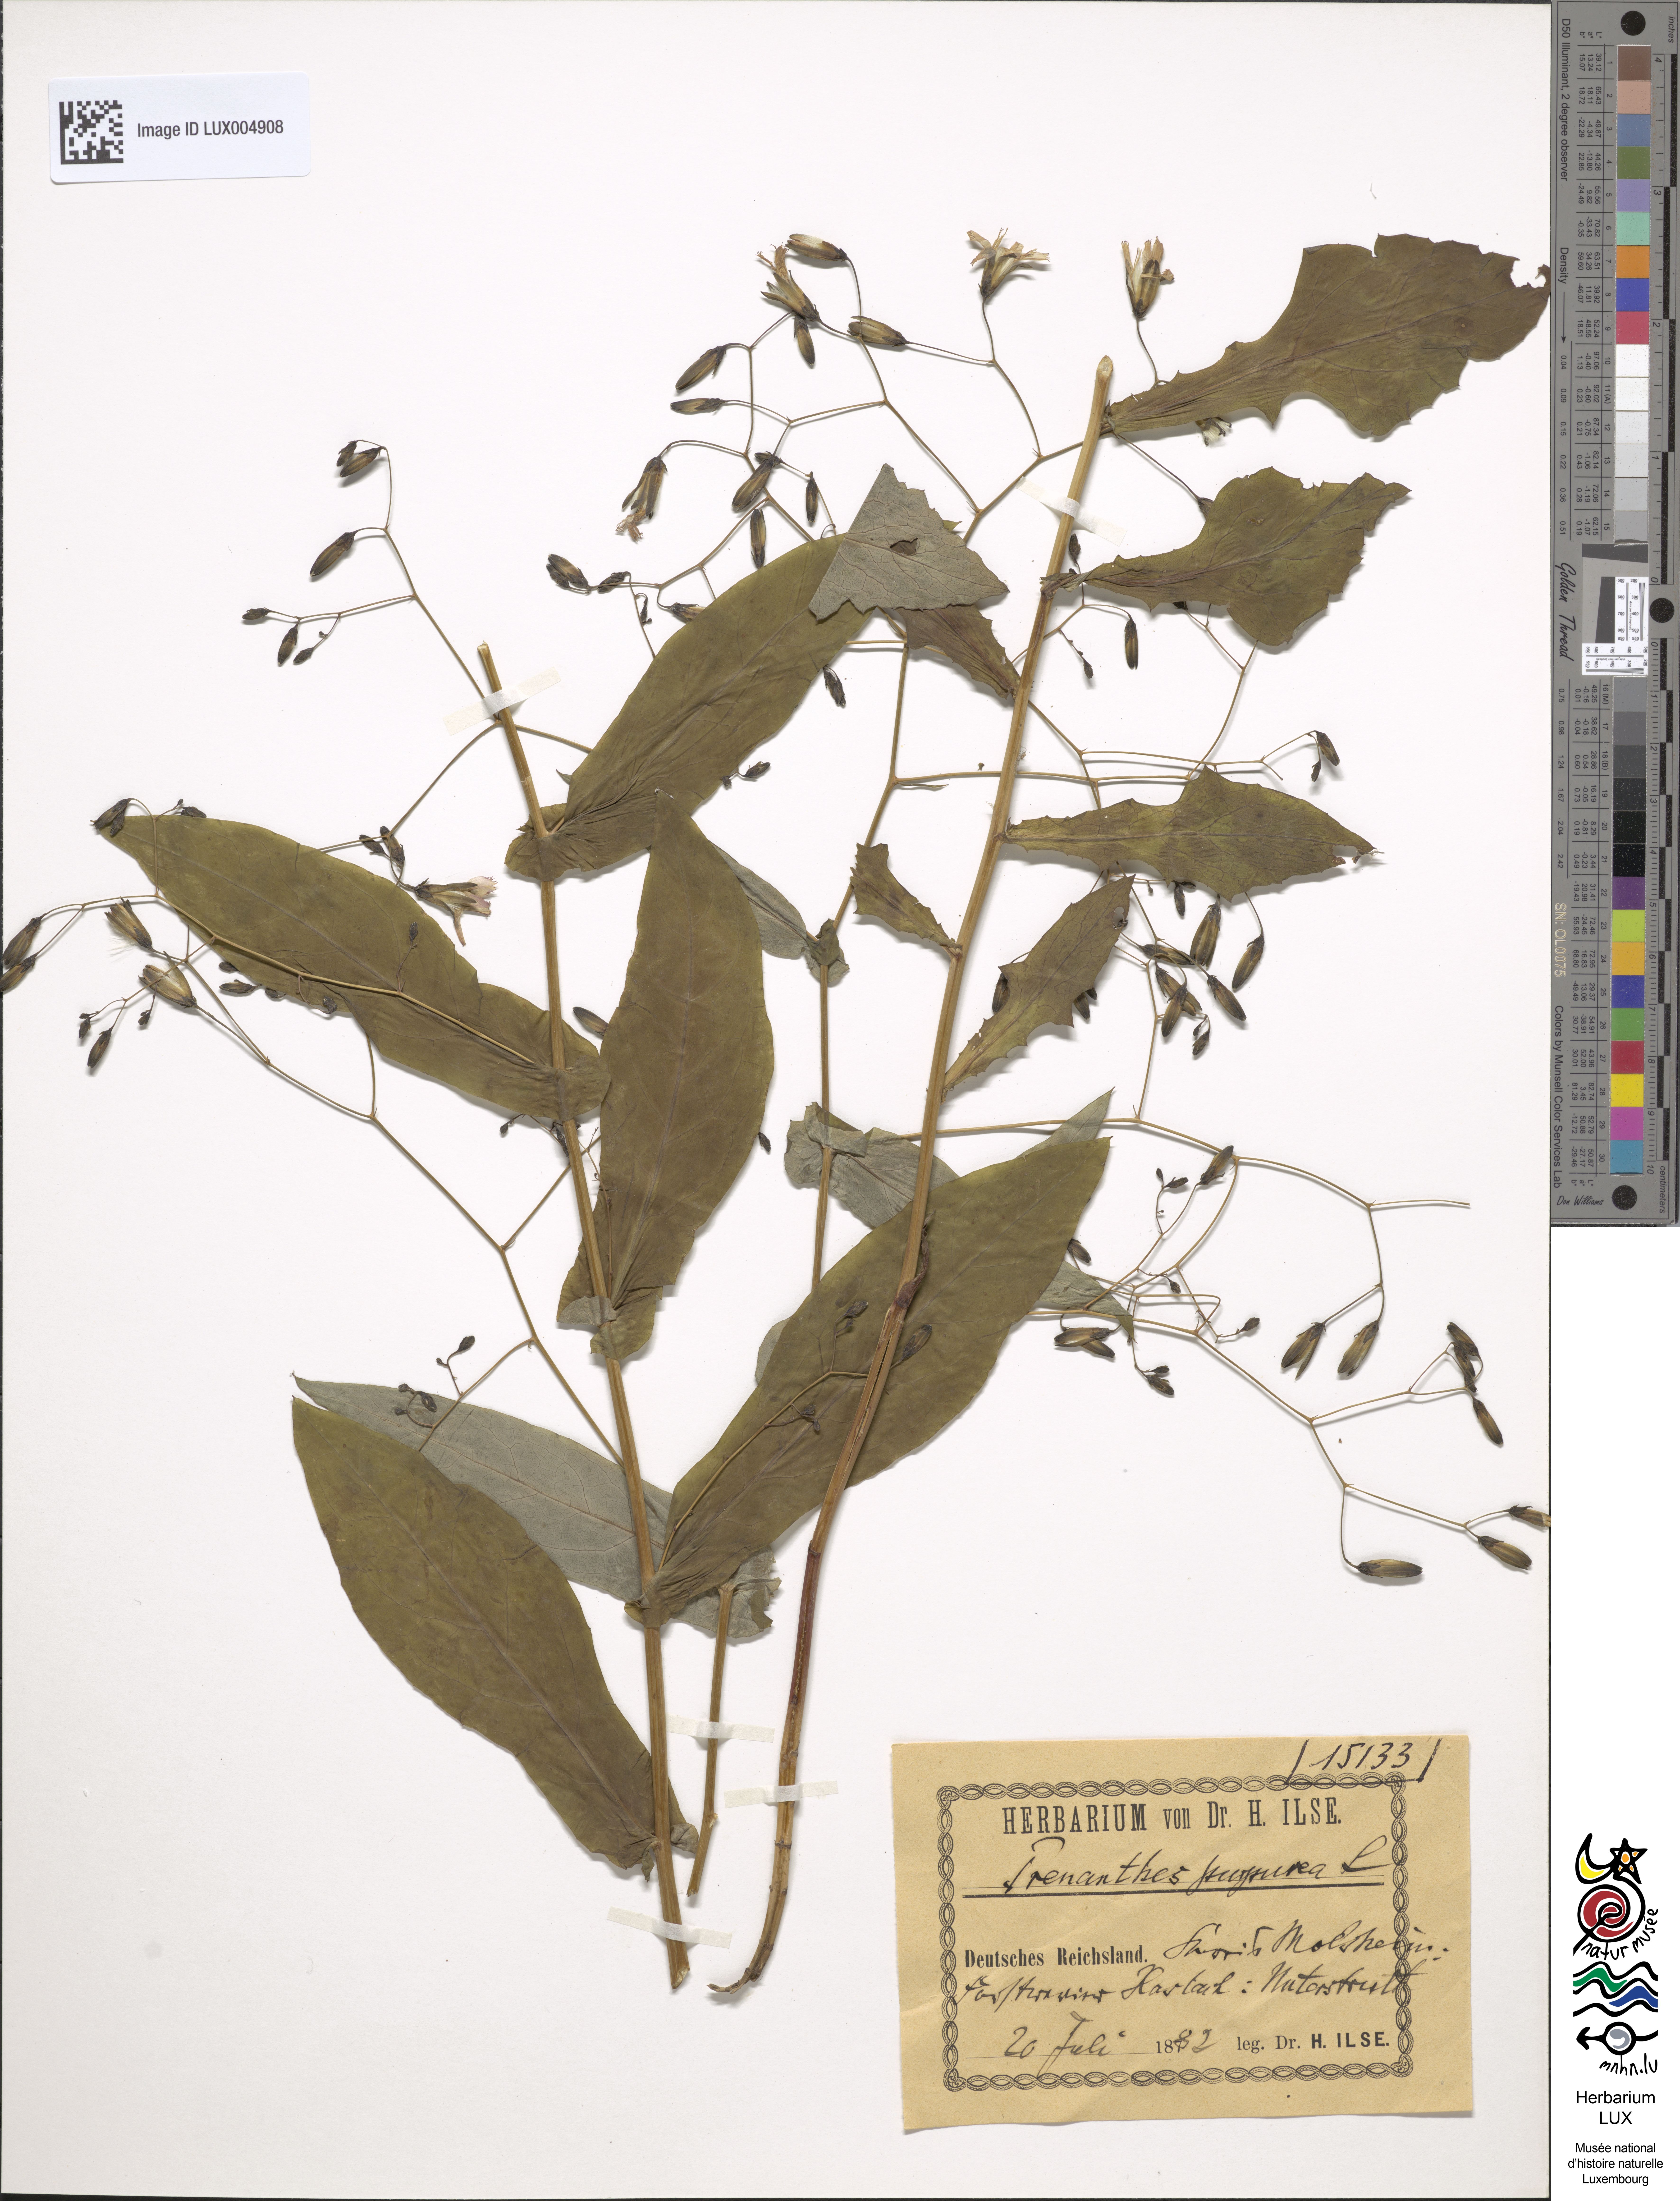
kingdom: Plantae
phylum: Tracheophyta
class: Magnoliopsida
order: Asterales
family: Asteraceae
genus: Prenanthes
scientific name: Prenanthes purpurea
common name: Purple lettuce
